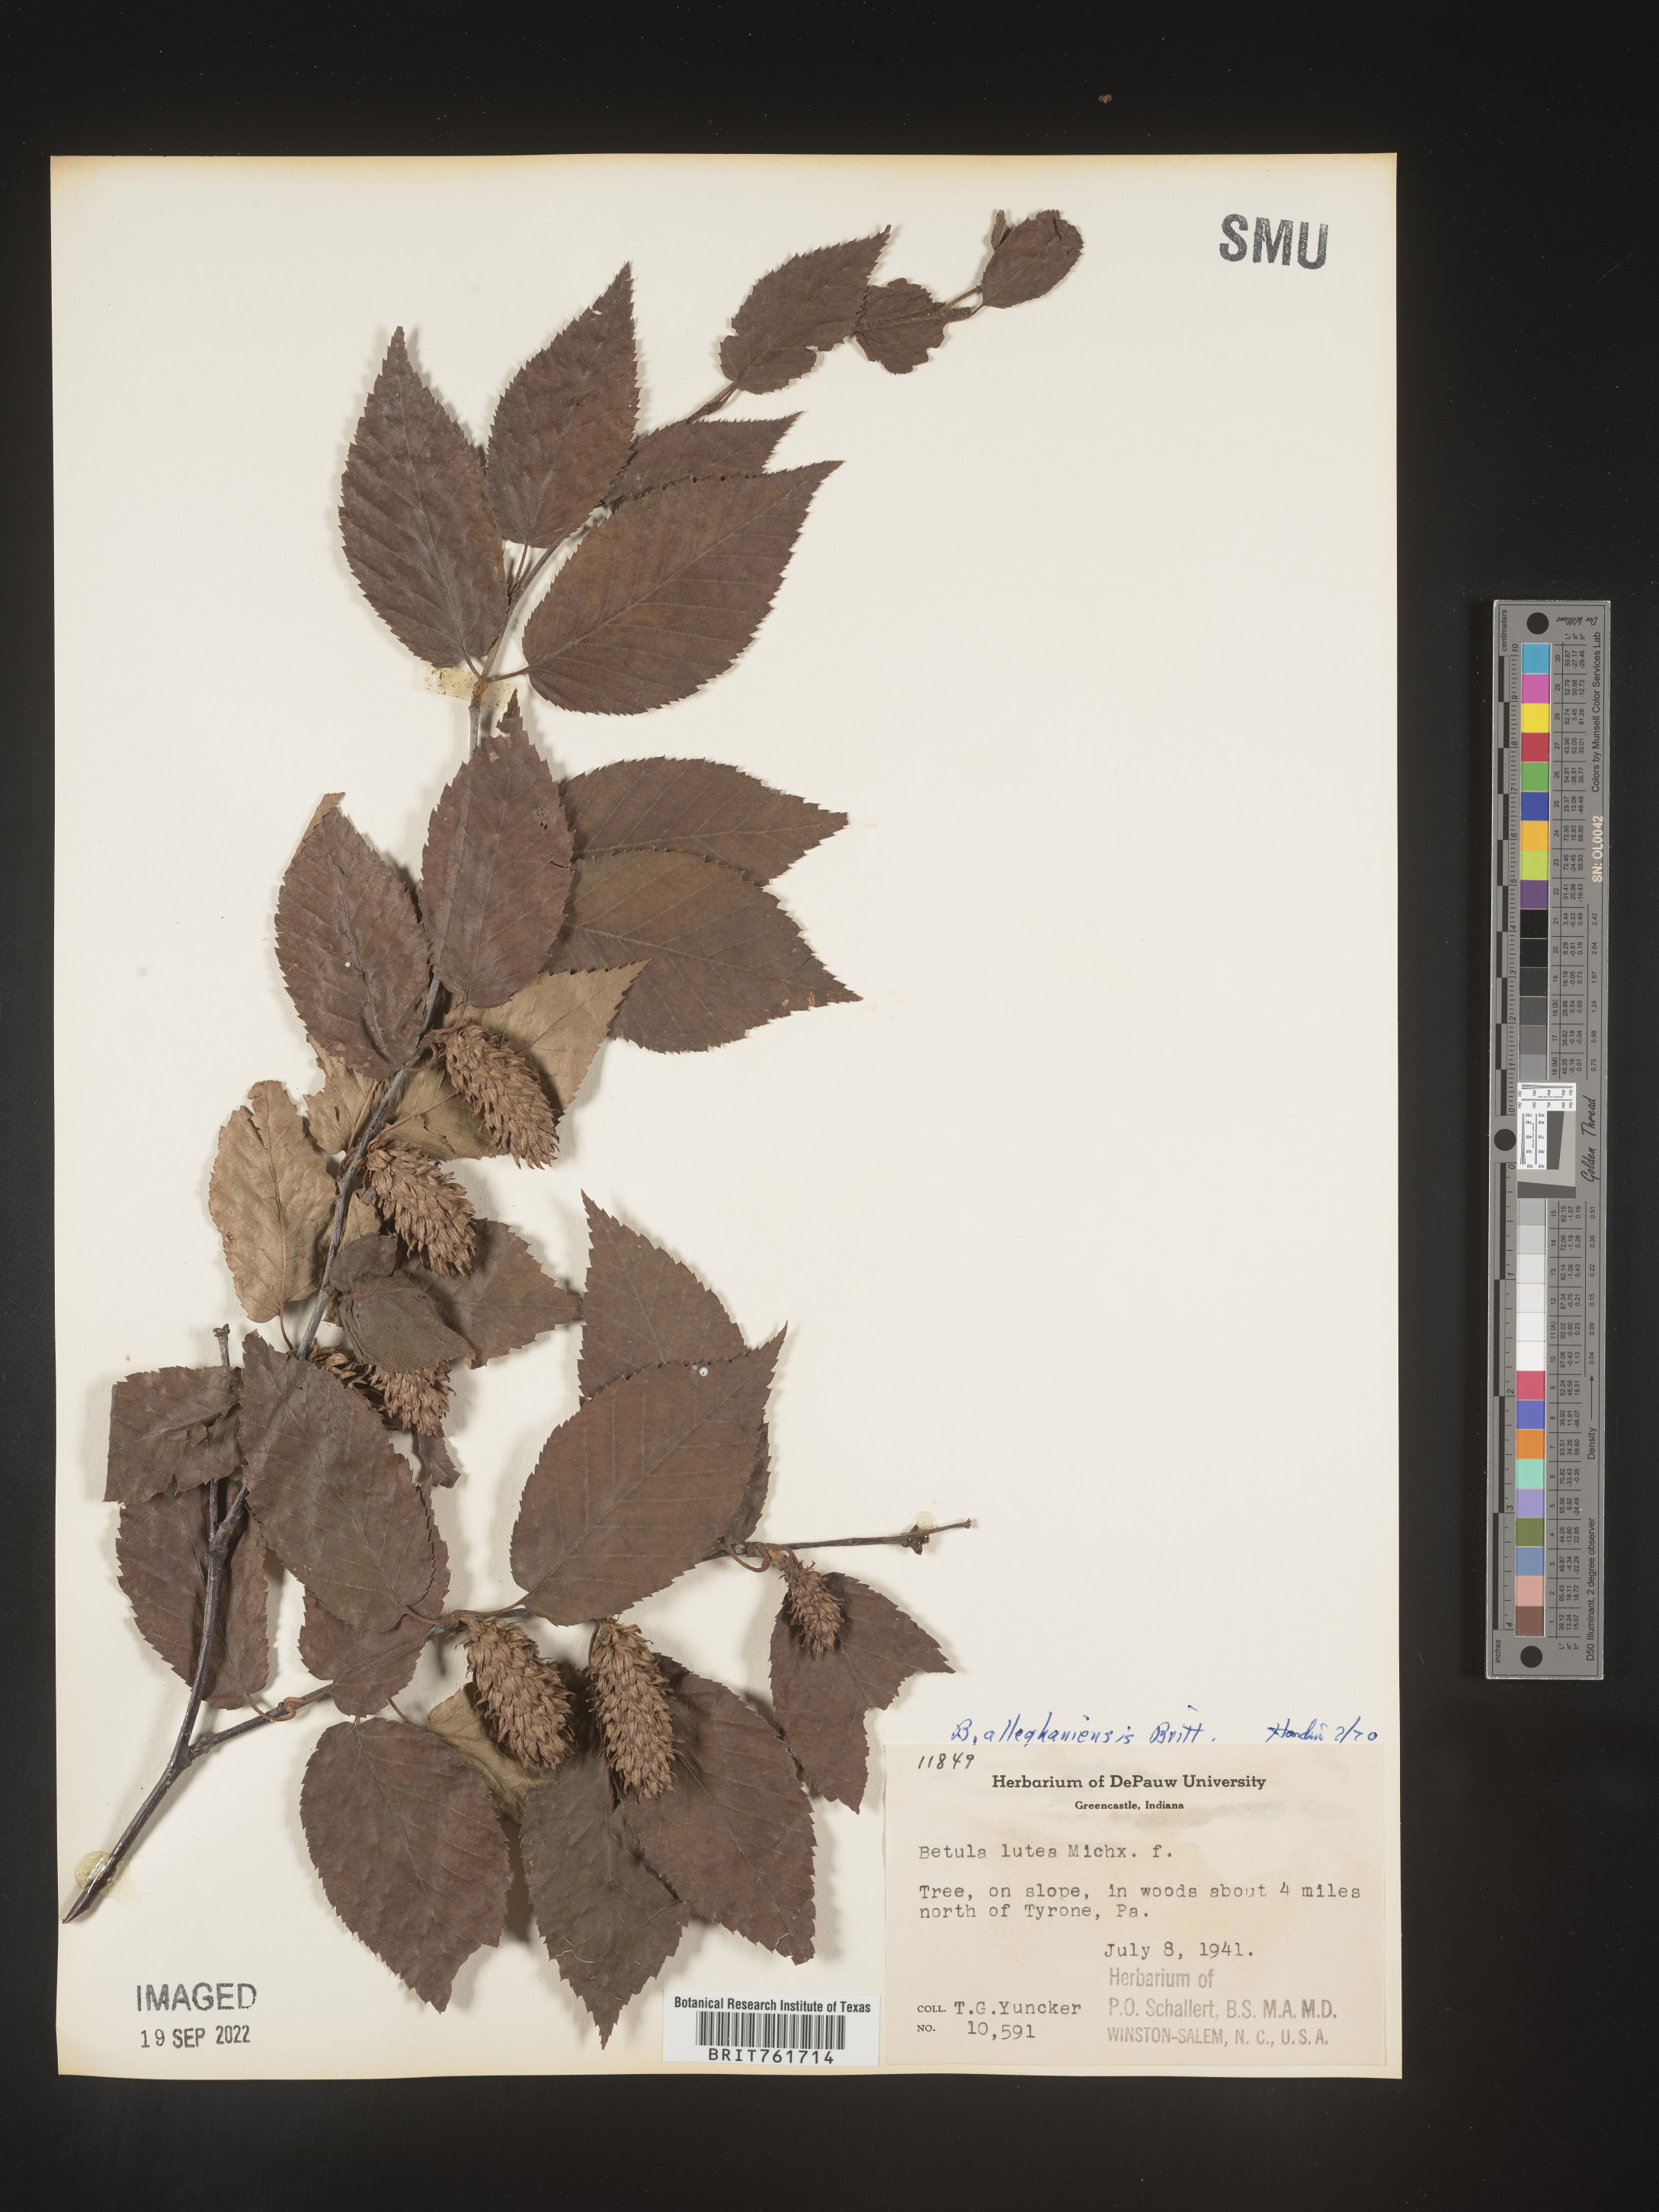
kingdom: Plantae
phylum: Tracheophyta
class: Magnoliopsida
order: Fagales
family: Betulaceae
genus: Betula
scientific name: Betula alleghaniensis
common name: Yellow birch
